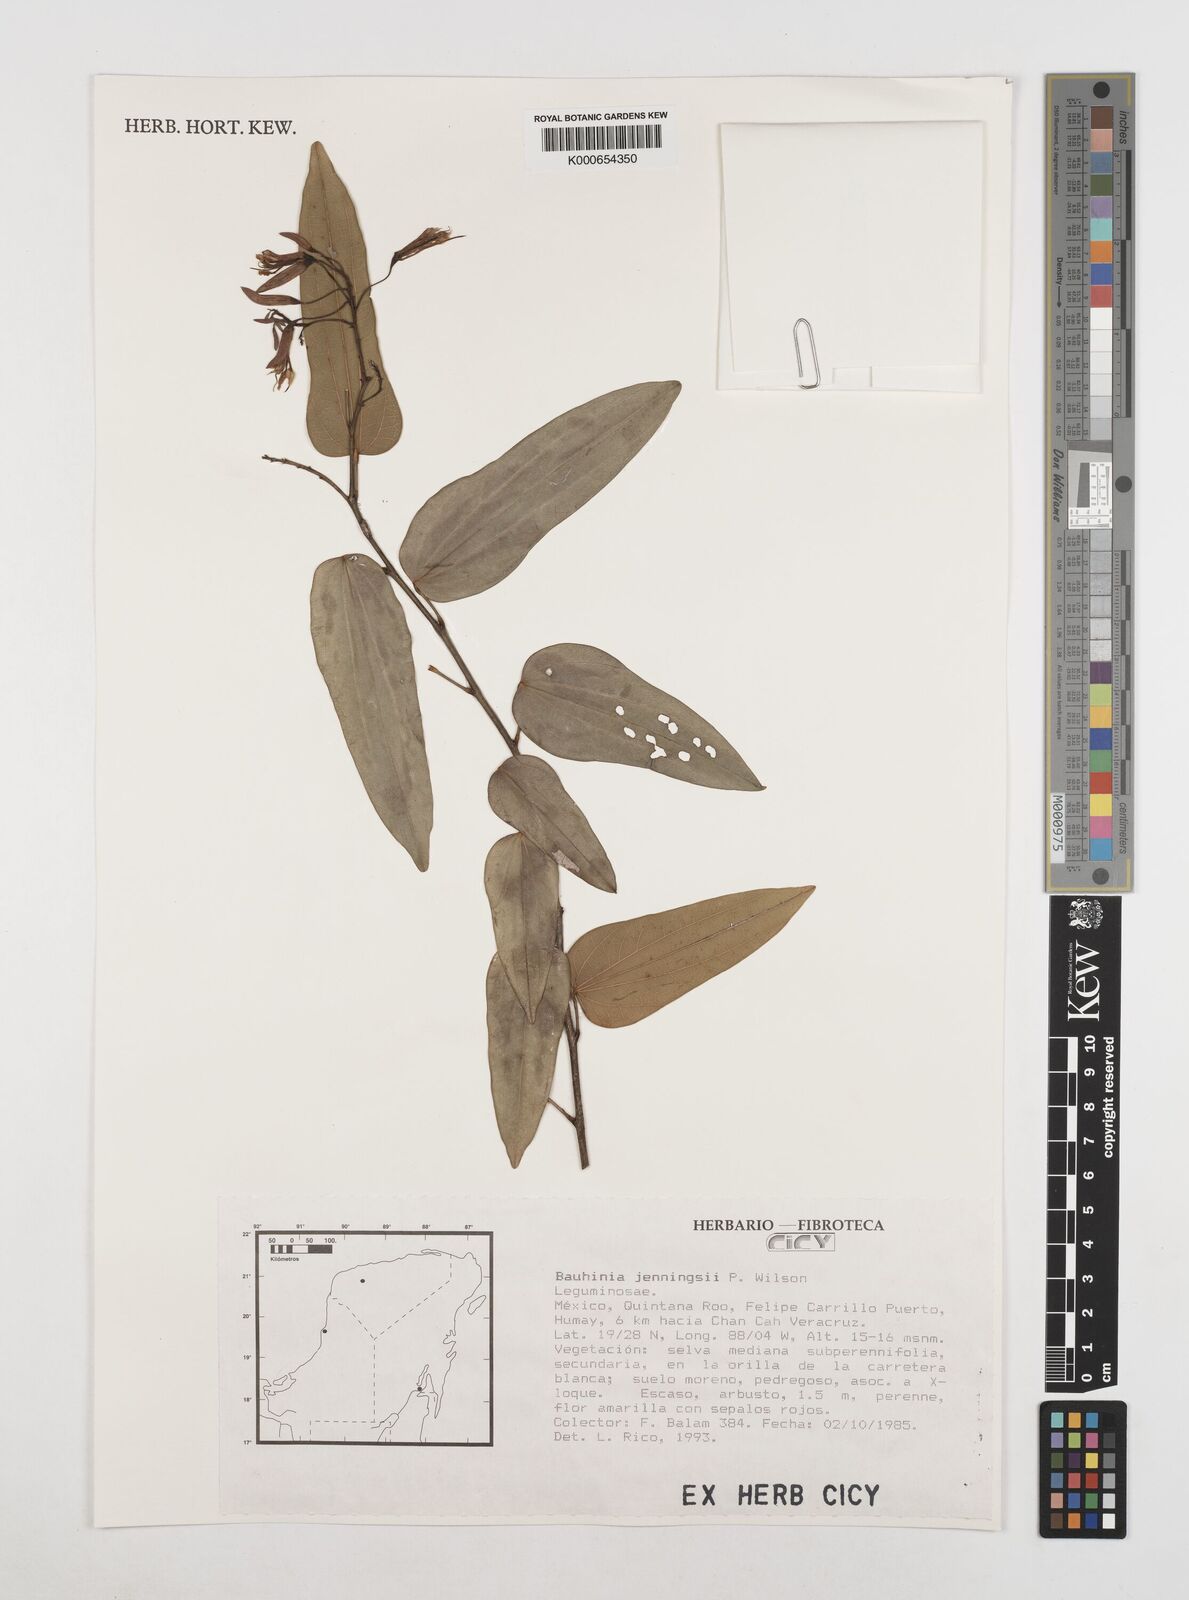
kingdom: Plantae
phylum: Tracheophyta
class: Magnoliopsida
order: Fabales
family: Fabaceae
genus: Bauhinia
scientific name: Bauhinia jenningsii
